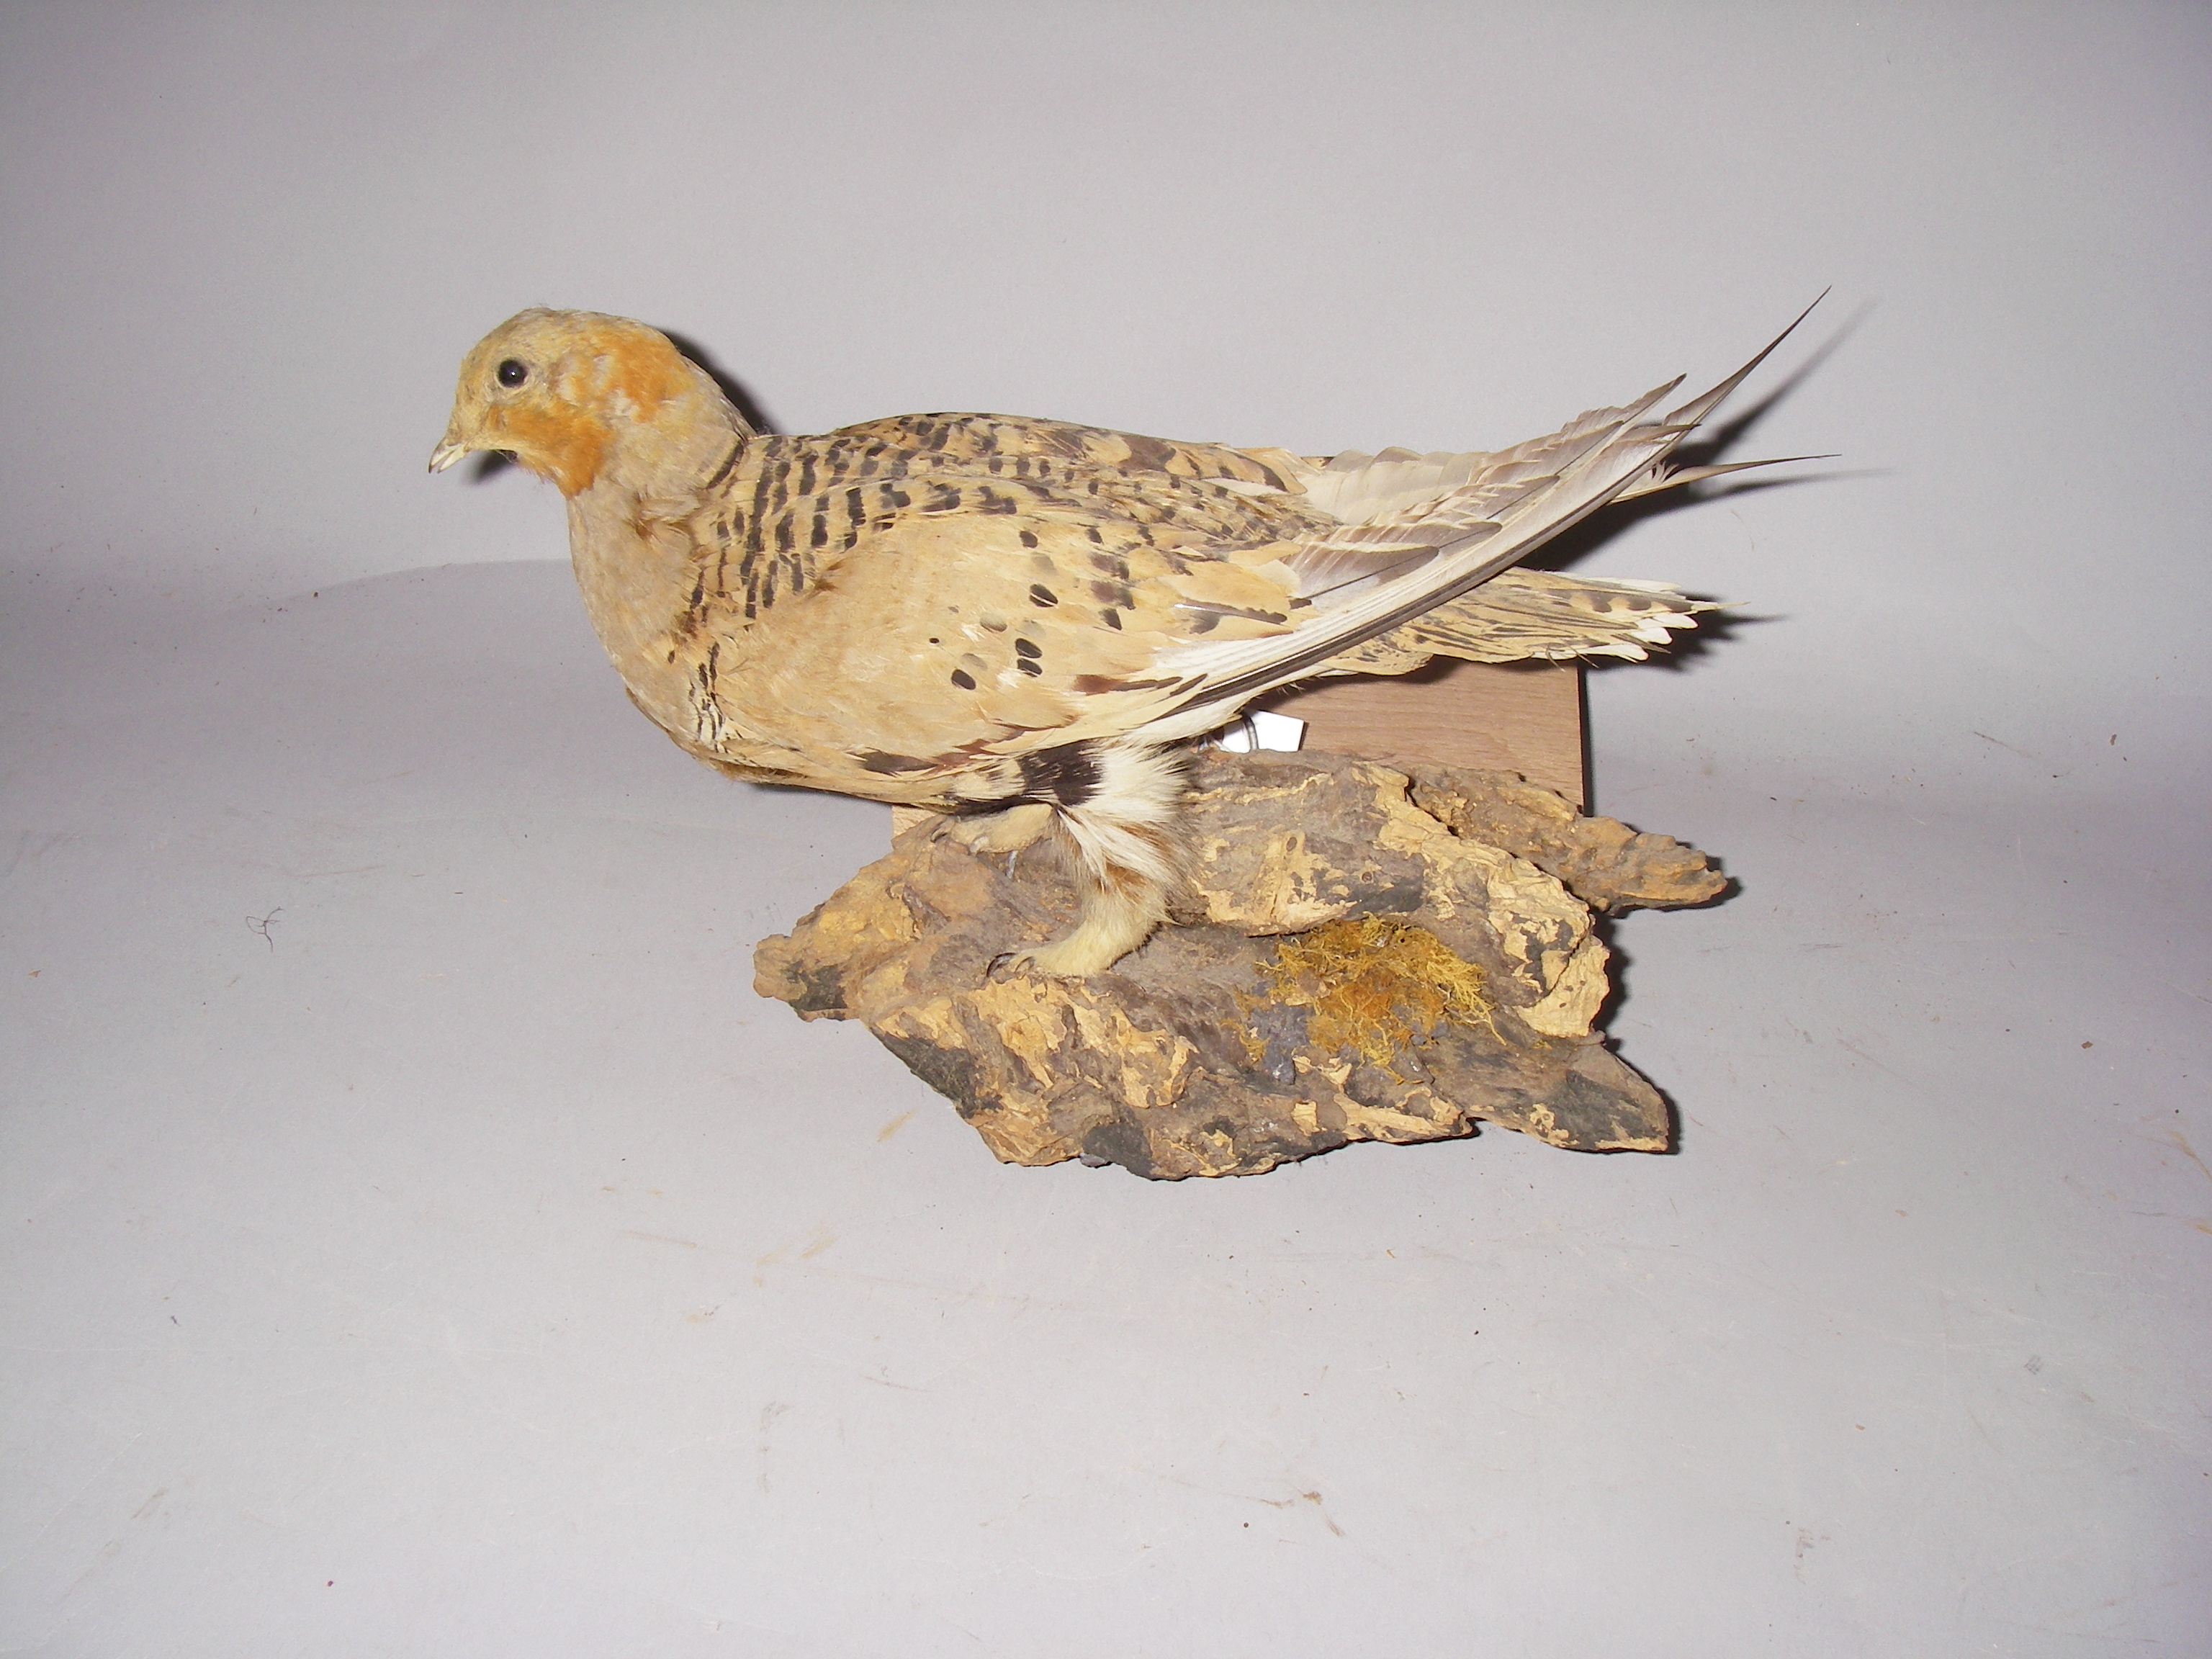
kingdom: Animalia
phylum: Chordata
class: Aves
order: Pteroclidiformes
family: Pteroclididae
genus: Syrrhaptes
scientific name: Syrrhaptes paradoxus
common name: Pallas's sandgrouse
